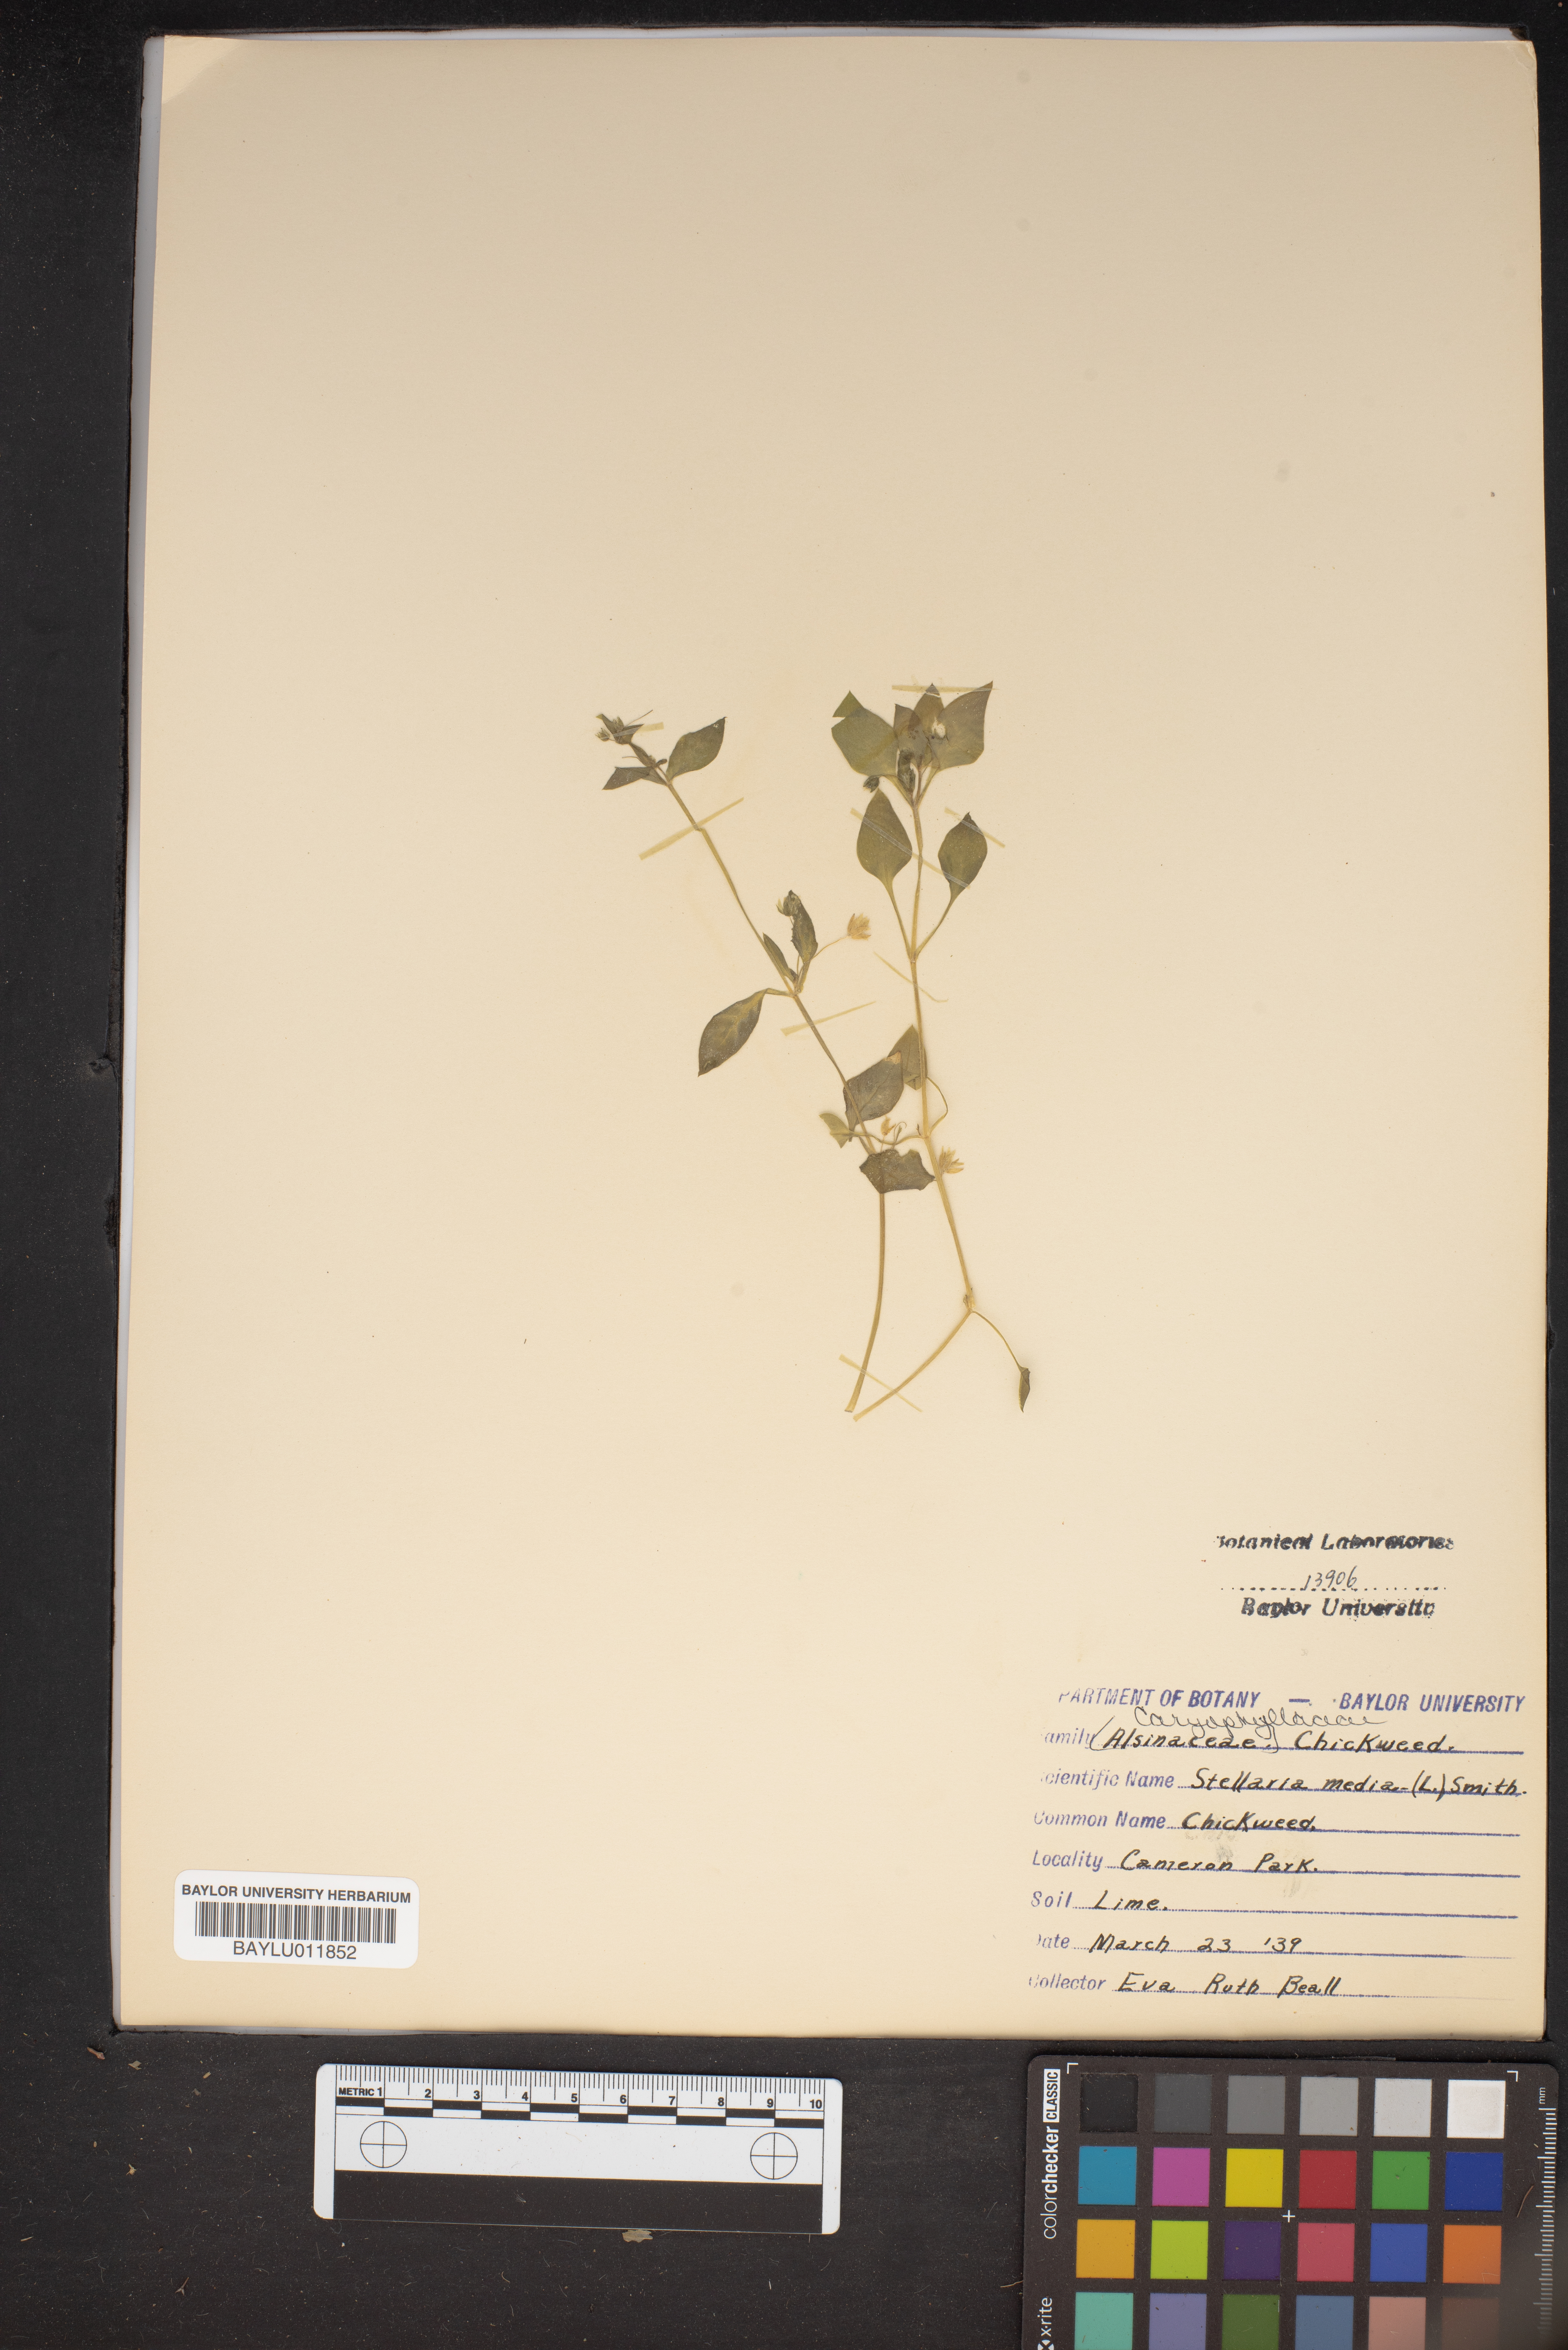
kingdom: Plantae
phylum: Tracheophyta
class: Magnoliopsida
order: Caryophyllales
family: Caryophyllaceae
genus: Stellaria
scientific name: Stellaria media
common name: Common chickweed
